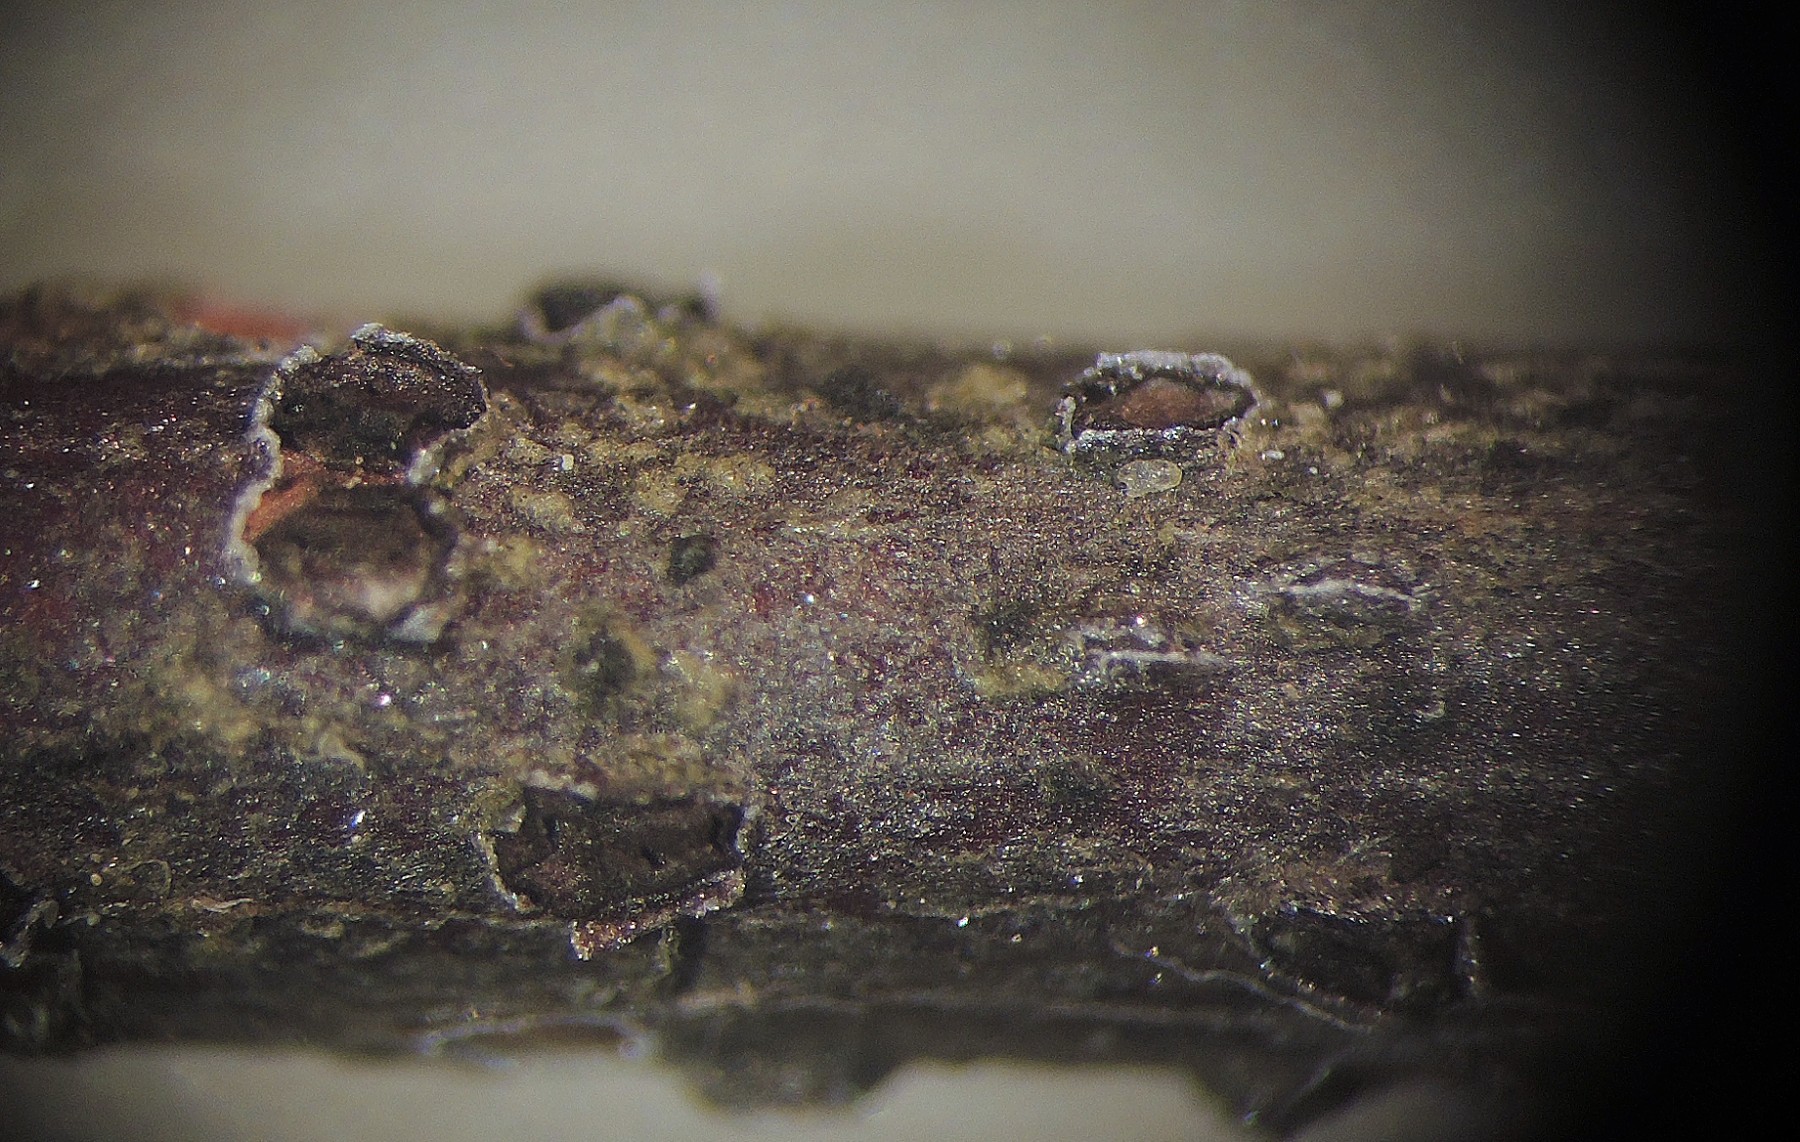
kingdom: Fungi
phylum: Ascomycota
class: Leotiomycetes
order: Phacidiales
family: Phacidiaceae
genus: Pseudophacidium
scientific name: Pseudophacidium ledi
